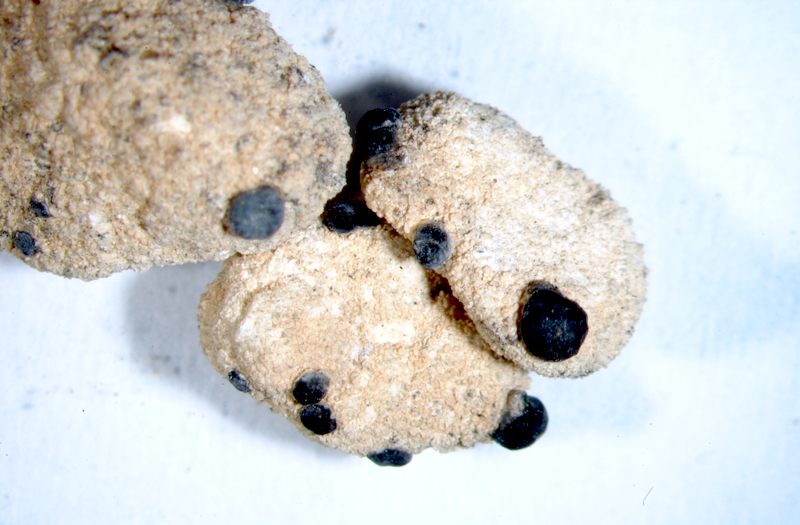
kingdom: Fungi
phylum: Ascomycota
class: Lecanoromycetes
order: Caliciales
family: Caliciaceae
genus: Buellia
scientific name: Buellia
